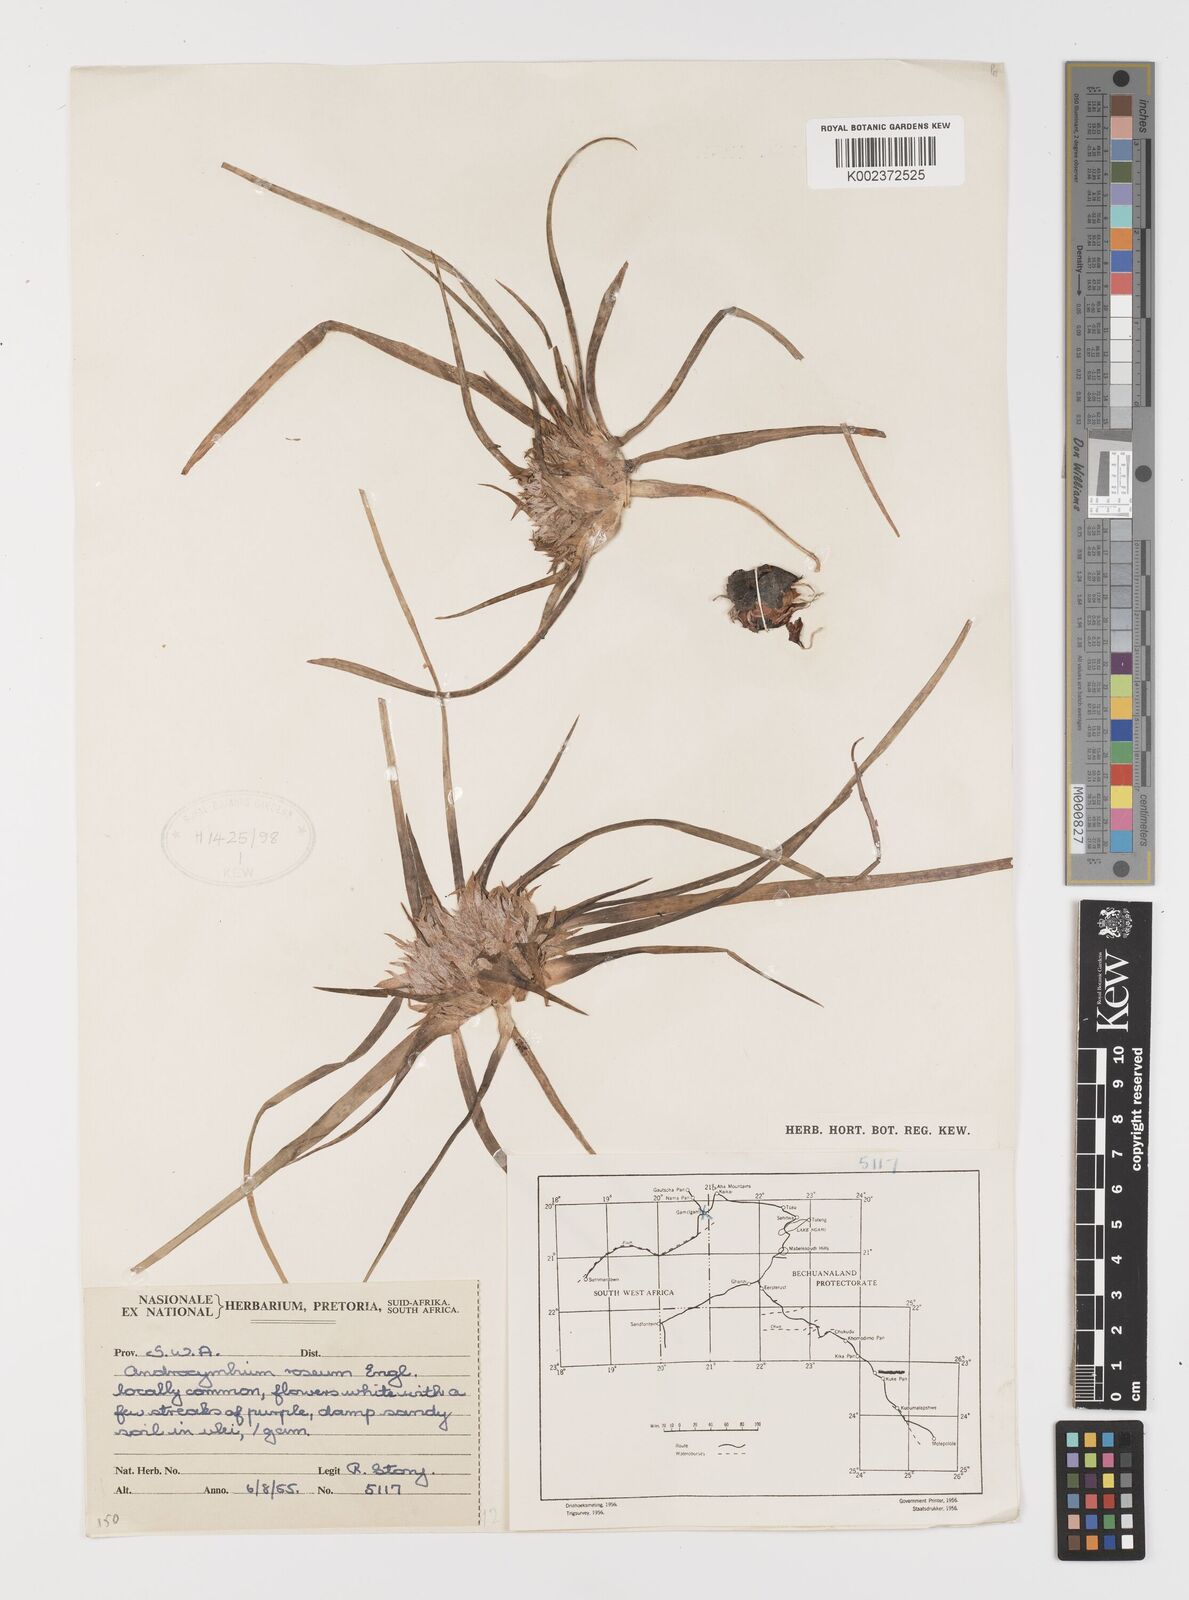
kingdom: Plantae
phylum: Tracheophyta
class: Liliopsida
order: Liliales
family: Colchicaceae
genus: Colchicum
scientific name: Colchicum roseum
